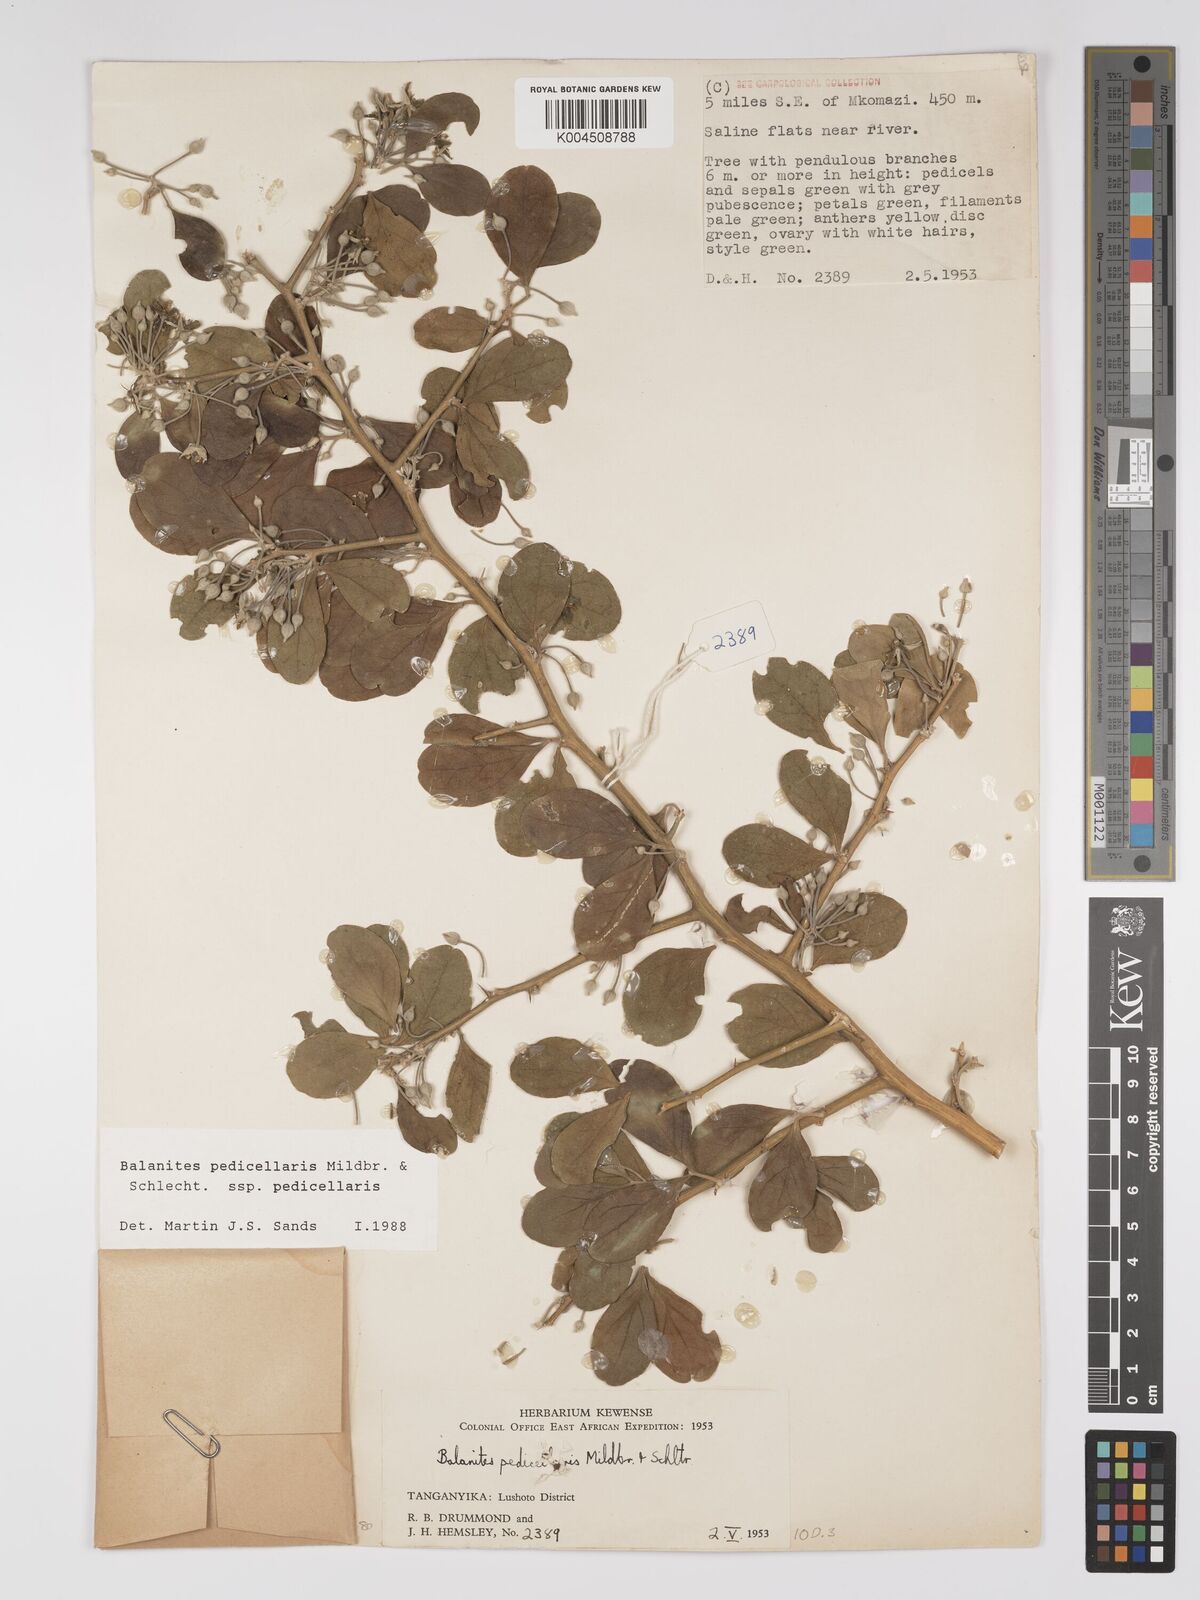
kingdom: Plantae
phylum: Tracheophyta
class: Magnoliopsida
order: Zygophyllales
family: Zygophyllaceae
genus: Balanites
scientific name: Balanites pedicellaris
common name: Small green-thorn
